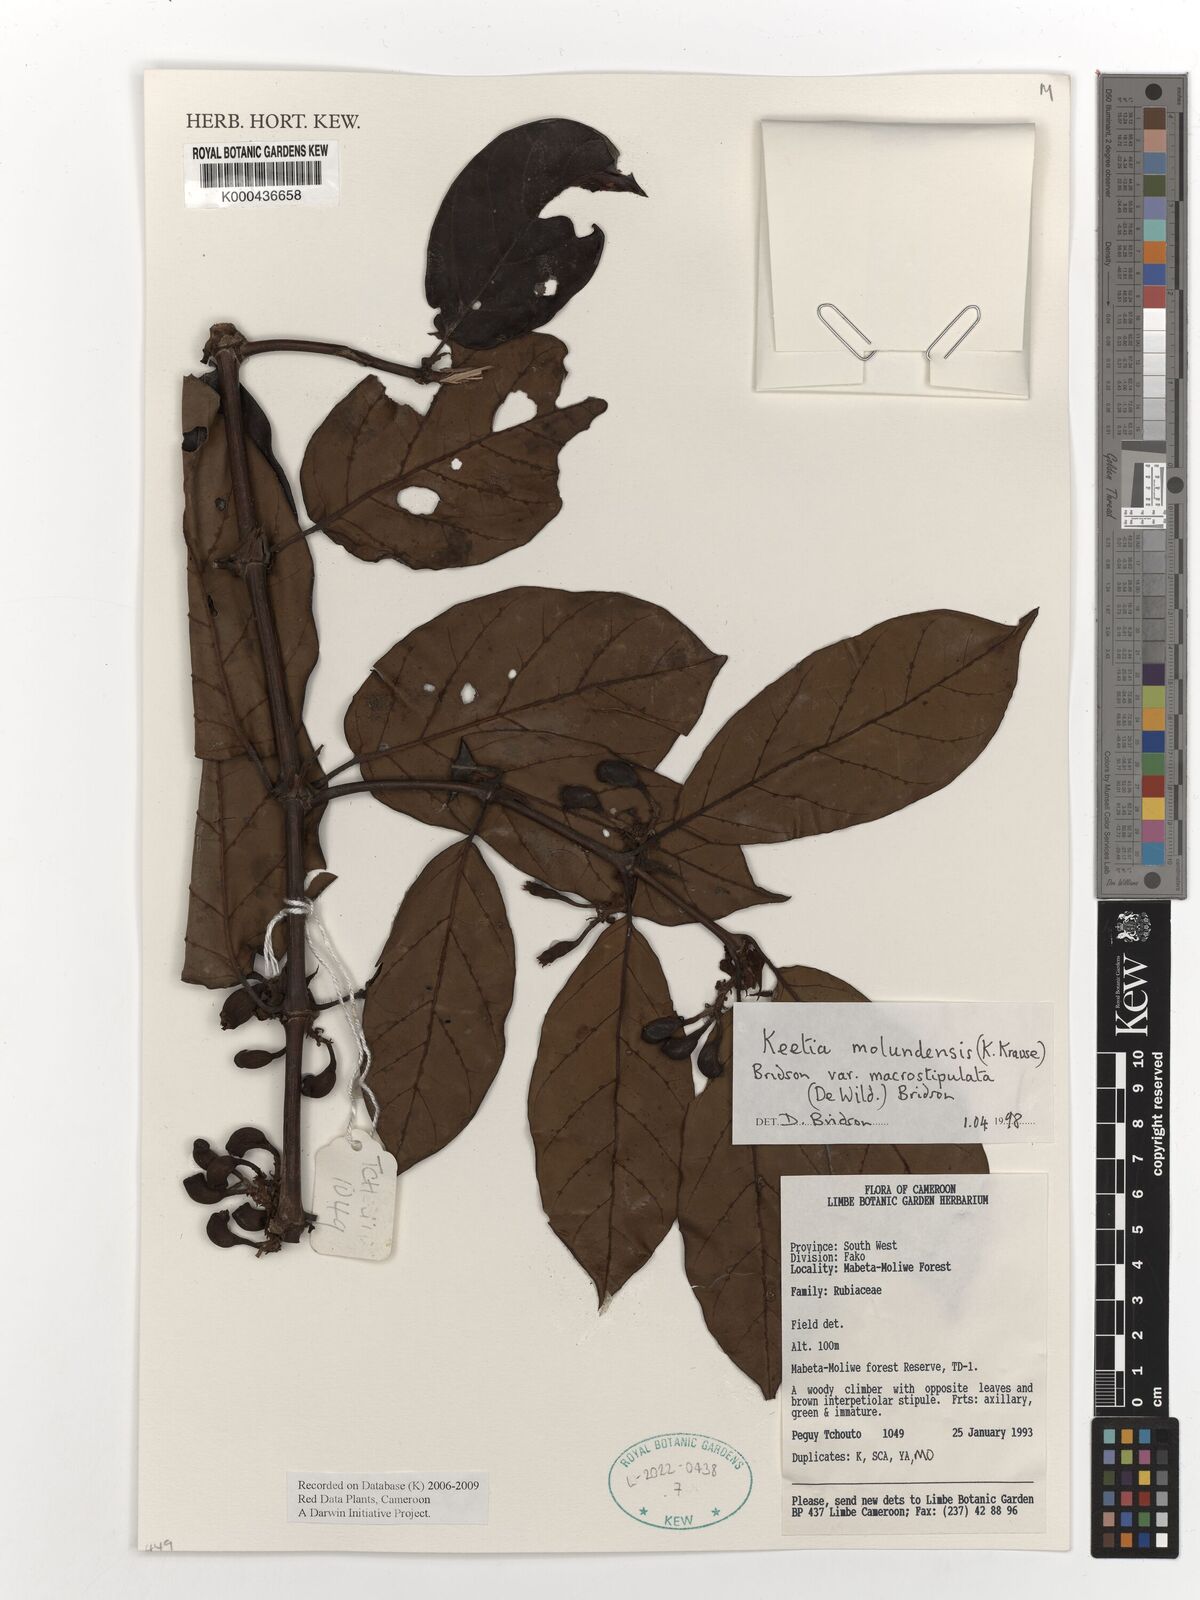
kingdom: Plantae
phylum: Tracheophyta
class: Magnoliopsida
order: Gentianales
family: Rubiaceae
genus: Keetia
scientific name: Keetia molundensis
